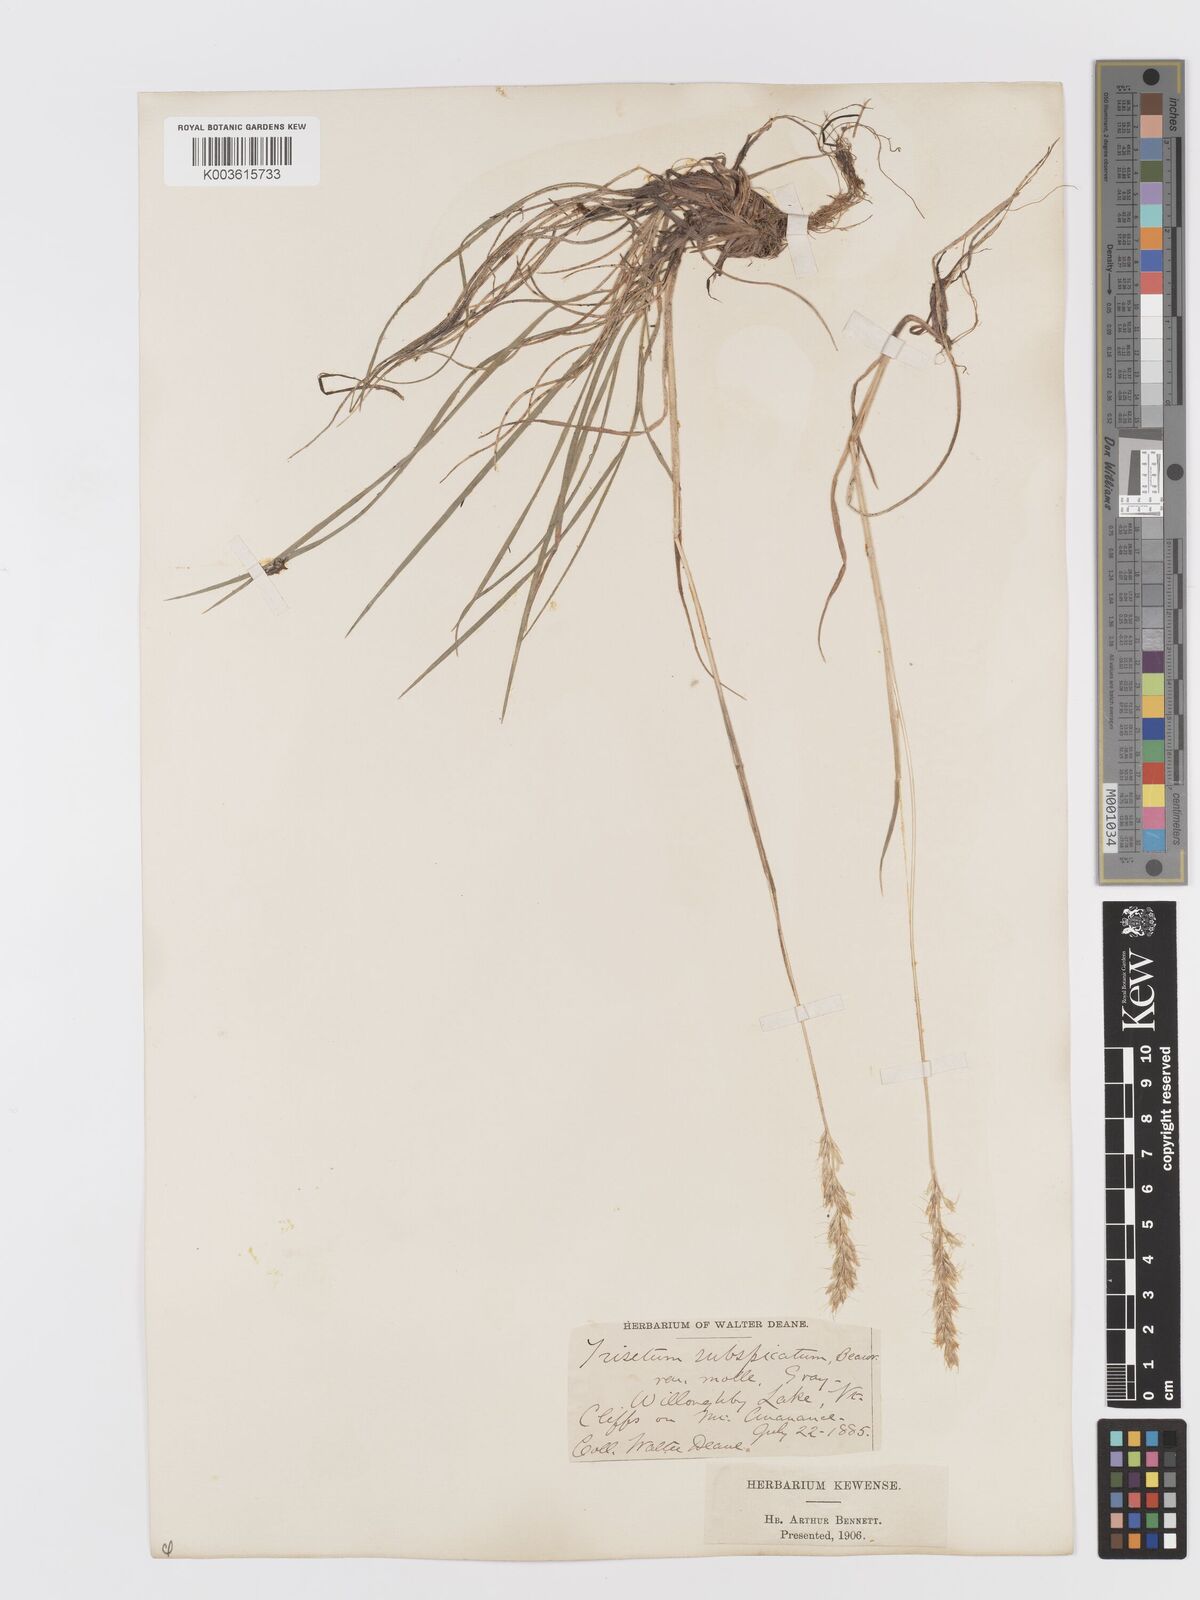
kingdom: Plantae
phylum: Tracheophyta
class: Liliopsida
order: Poales
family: Poaceae
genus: Koeleria
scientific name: Koeleria spicata
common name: Mountain trisetum
